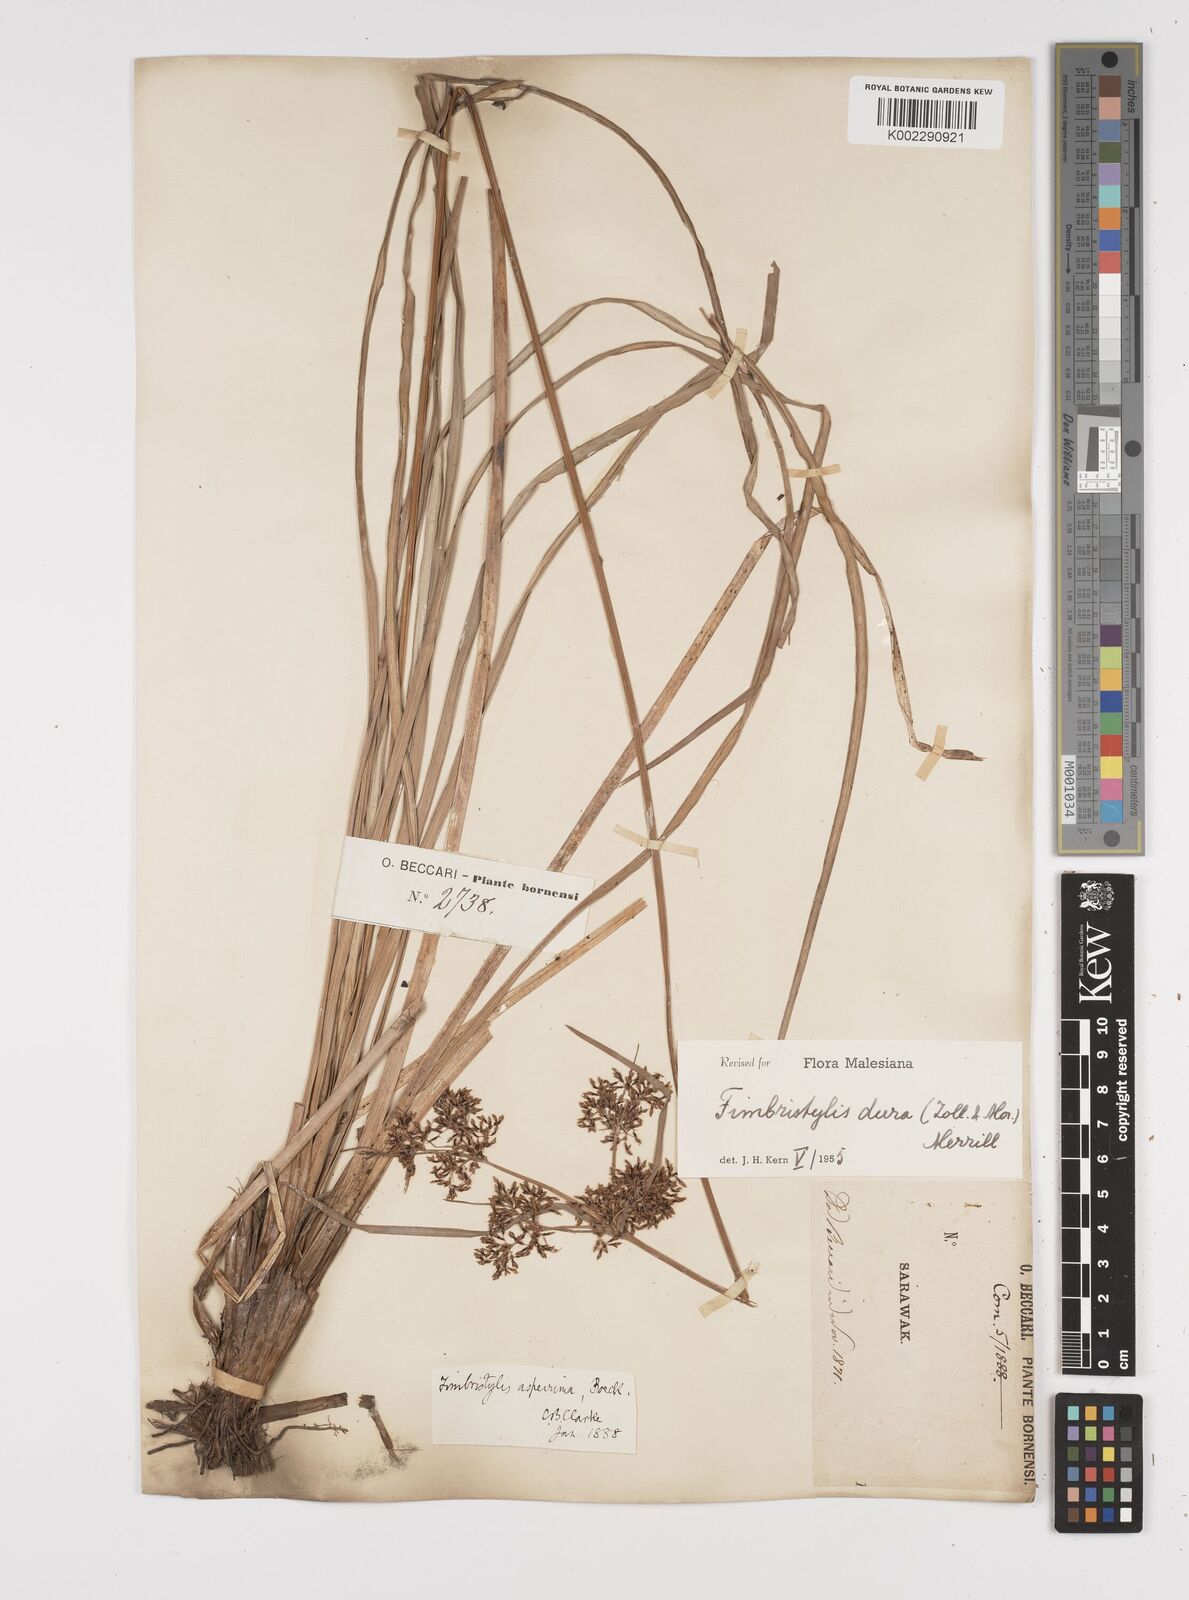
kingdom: Plantae
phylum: Tracheophyta
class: Liliopsida
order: Poales
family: Cyperaceae
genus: Fimbristylis
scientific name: Fimbristylis dura
